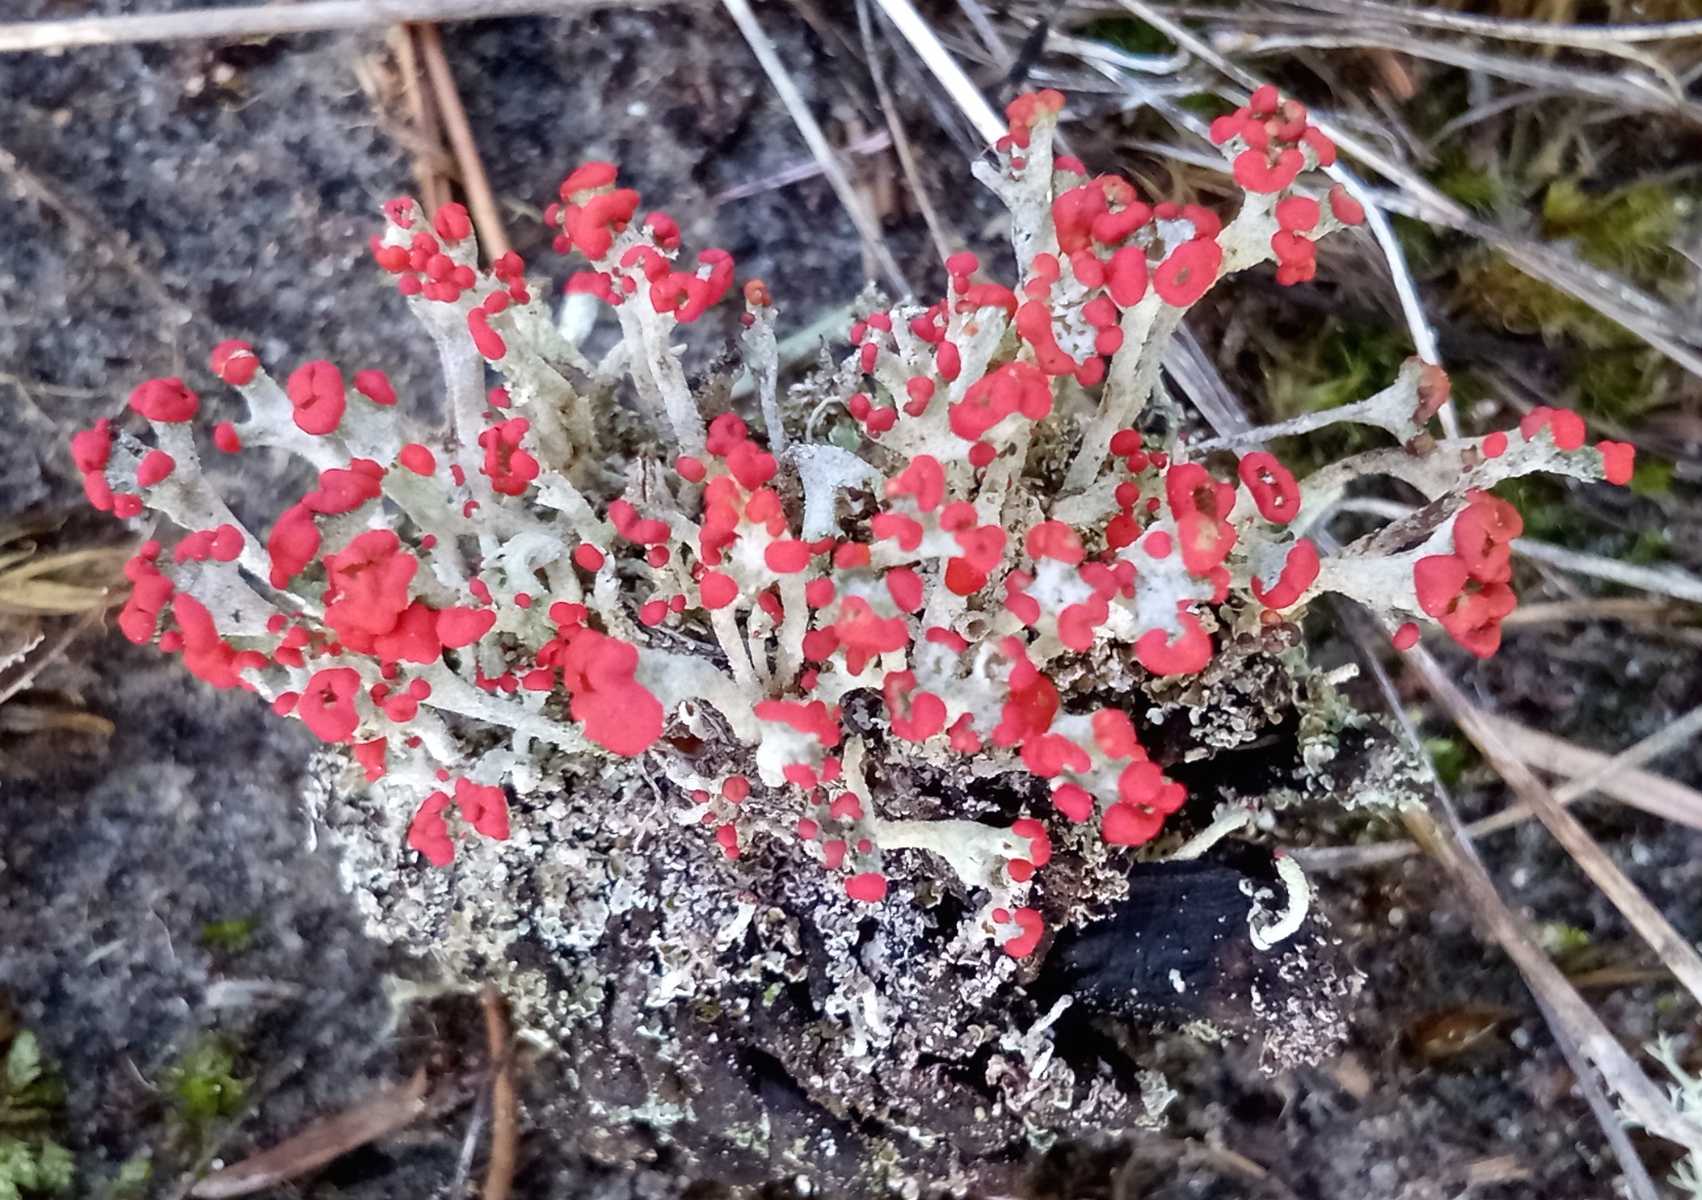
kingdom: Fungi
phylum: Ascomycota
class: Lecanoromycetes
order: Lecanorales
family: Cladoniaceae
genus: Cladonia
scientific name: Cladonia floerkeana
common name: lakrød bægerlav
